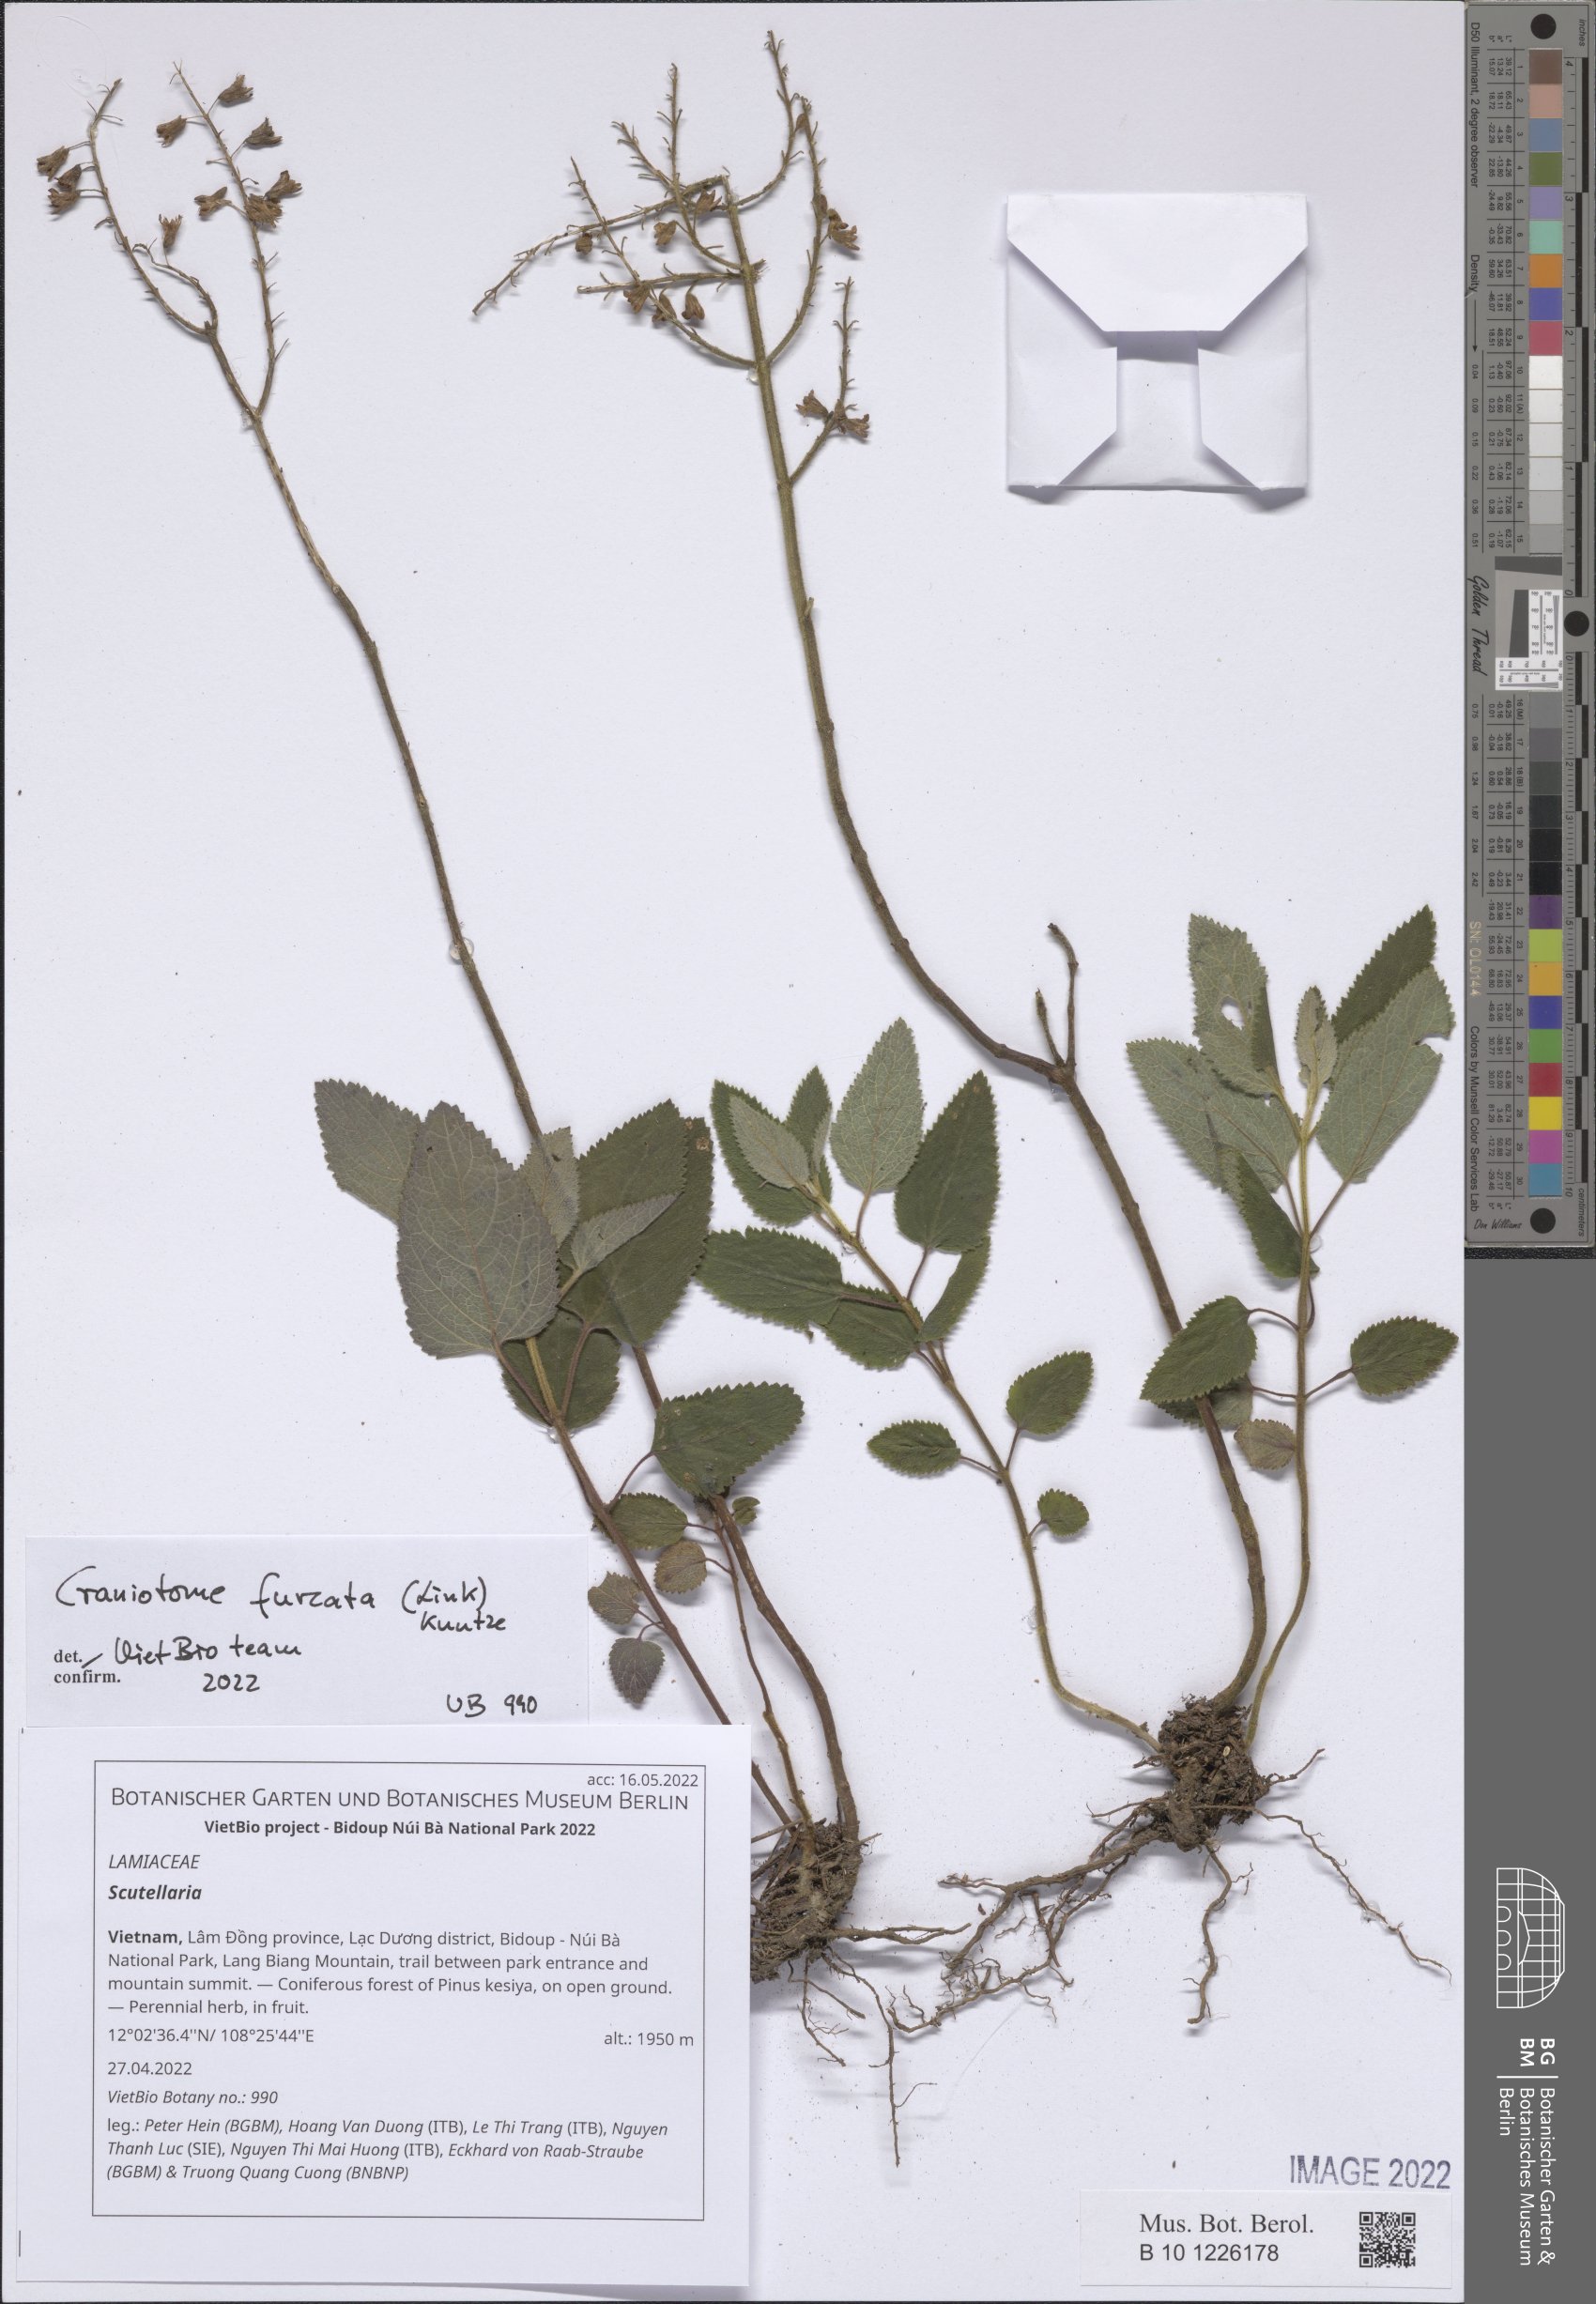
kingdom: Plantae
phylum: Tracheophyta
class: Magnoliopsida
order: Lamiales
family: Lamiaceae
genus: Scutellaria
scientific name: Scutellaria
